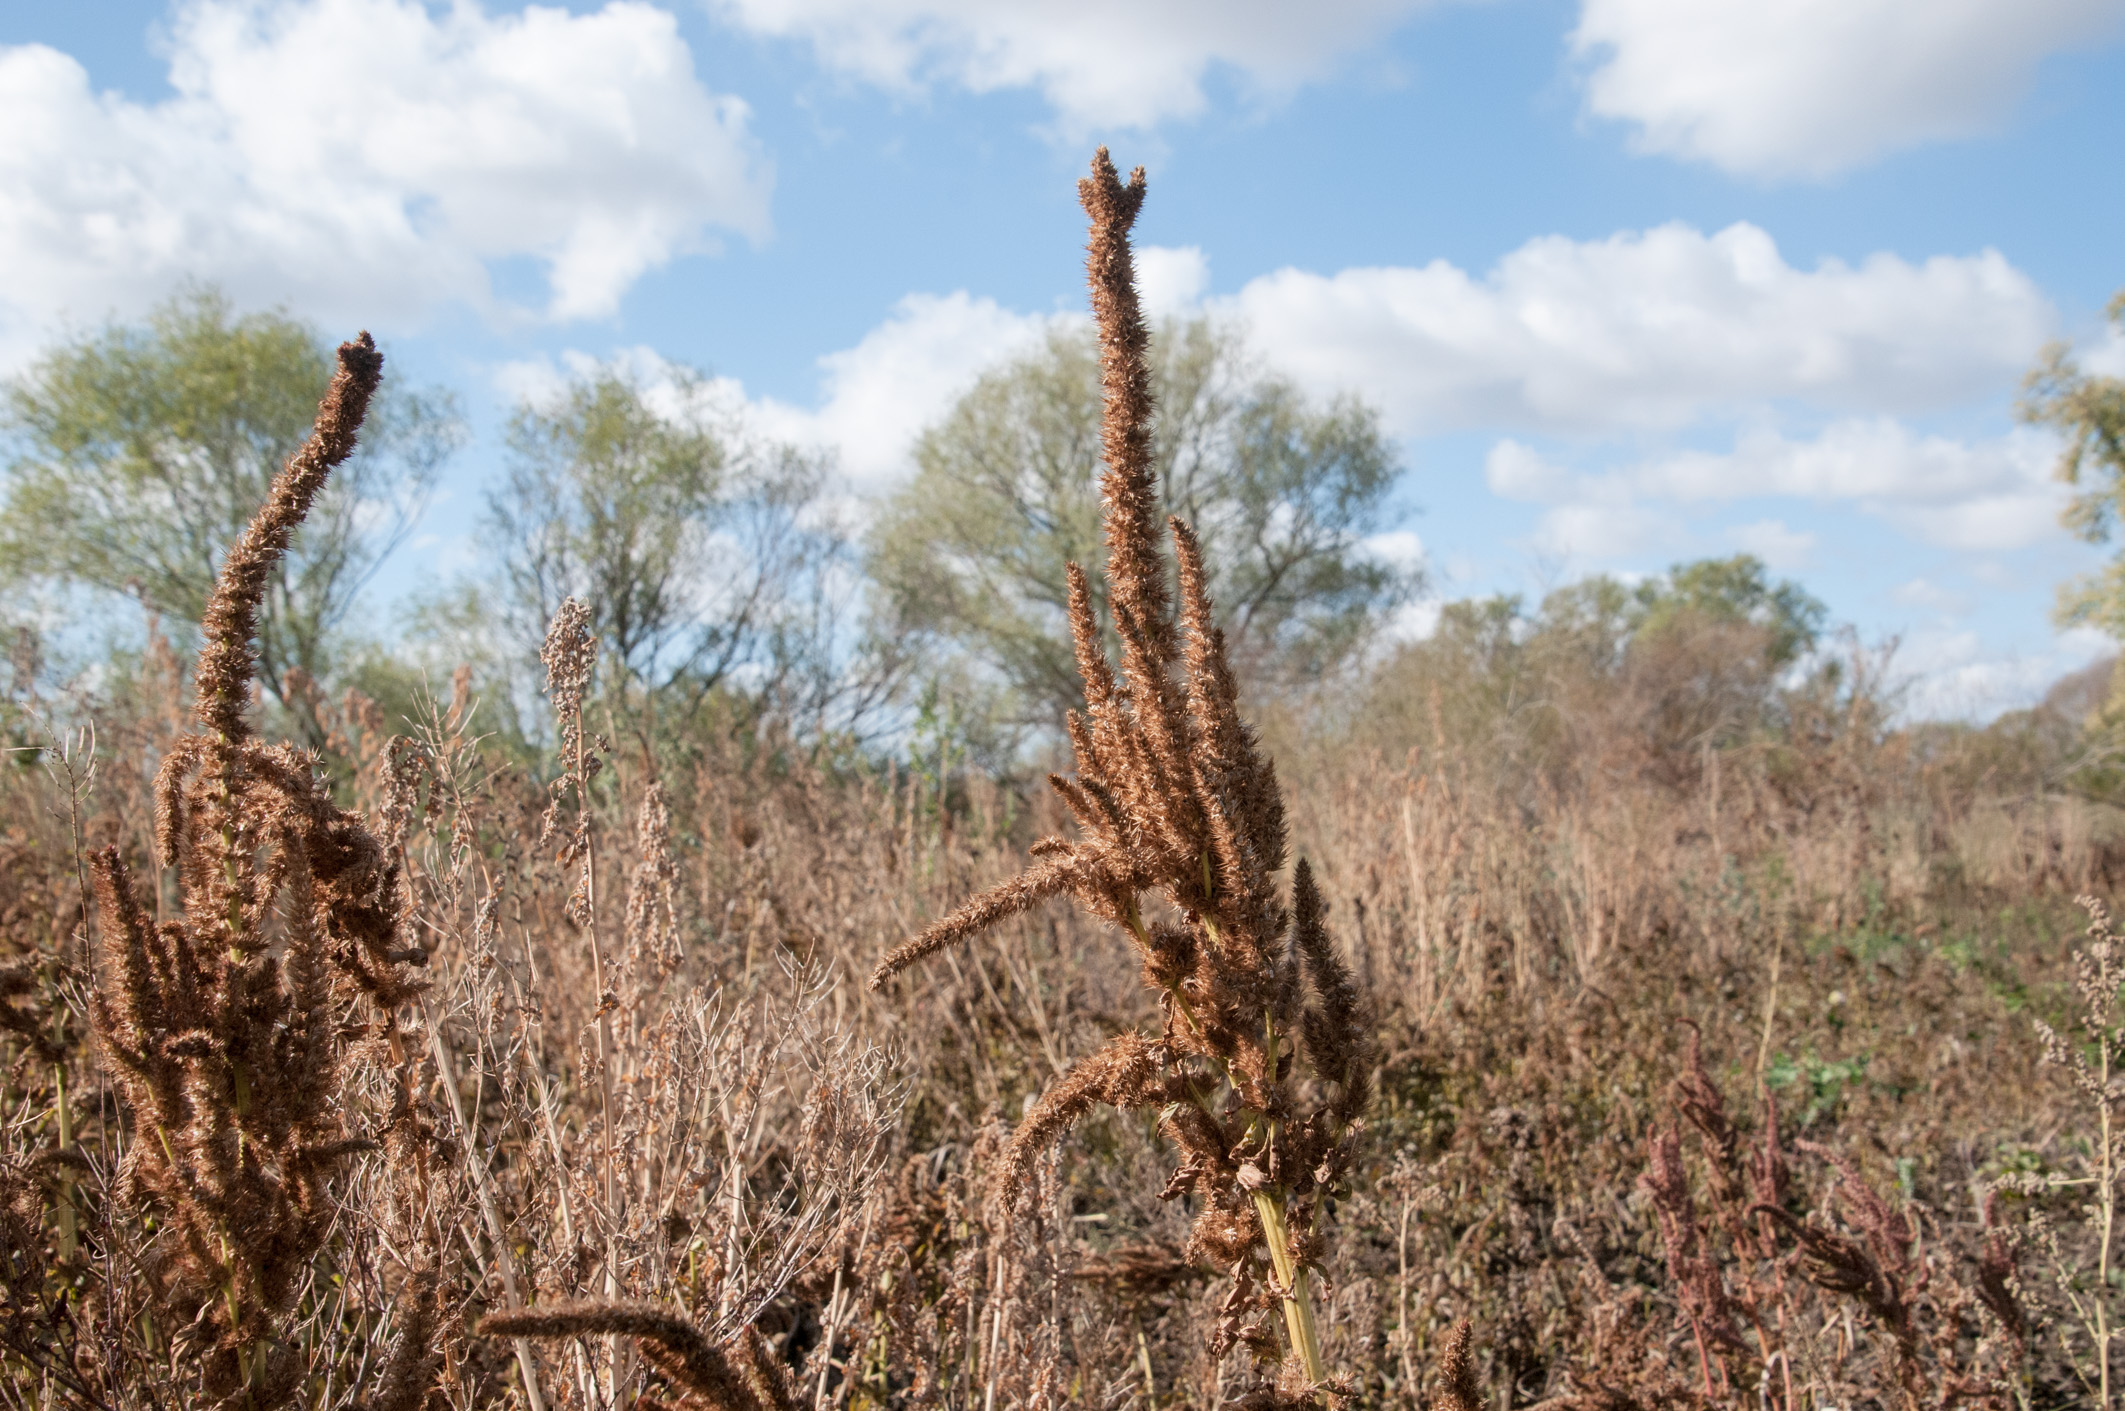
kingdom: Plantae
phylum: Tracheophyta
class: Magnoliopsida
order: Caryophyllales
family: Amaranthaceae
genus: Amaranthus
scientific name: Amaranthus powellii
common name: Powell's amaranth
